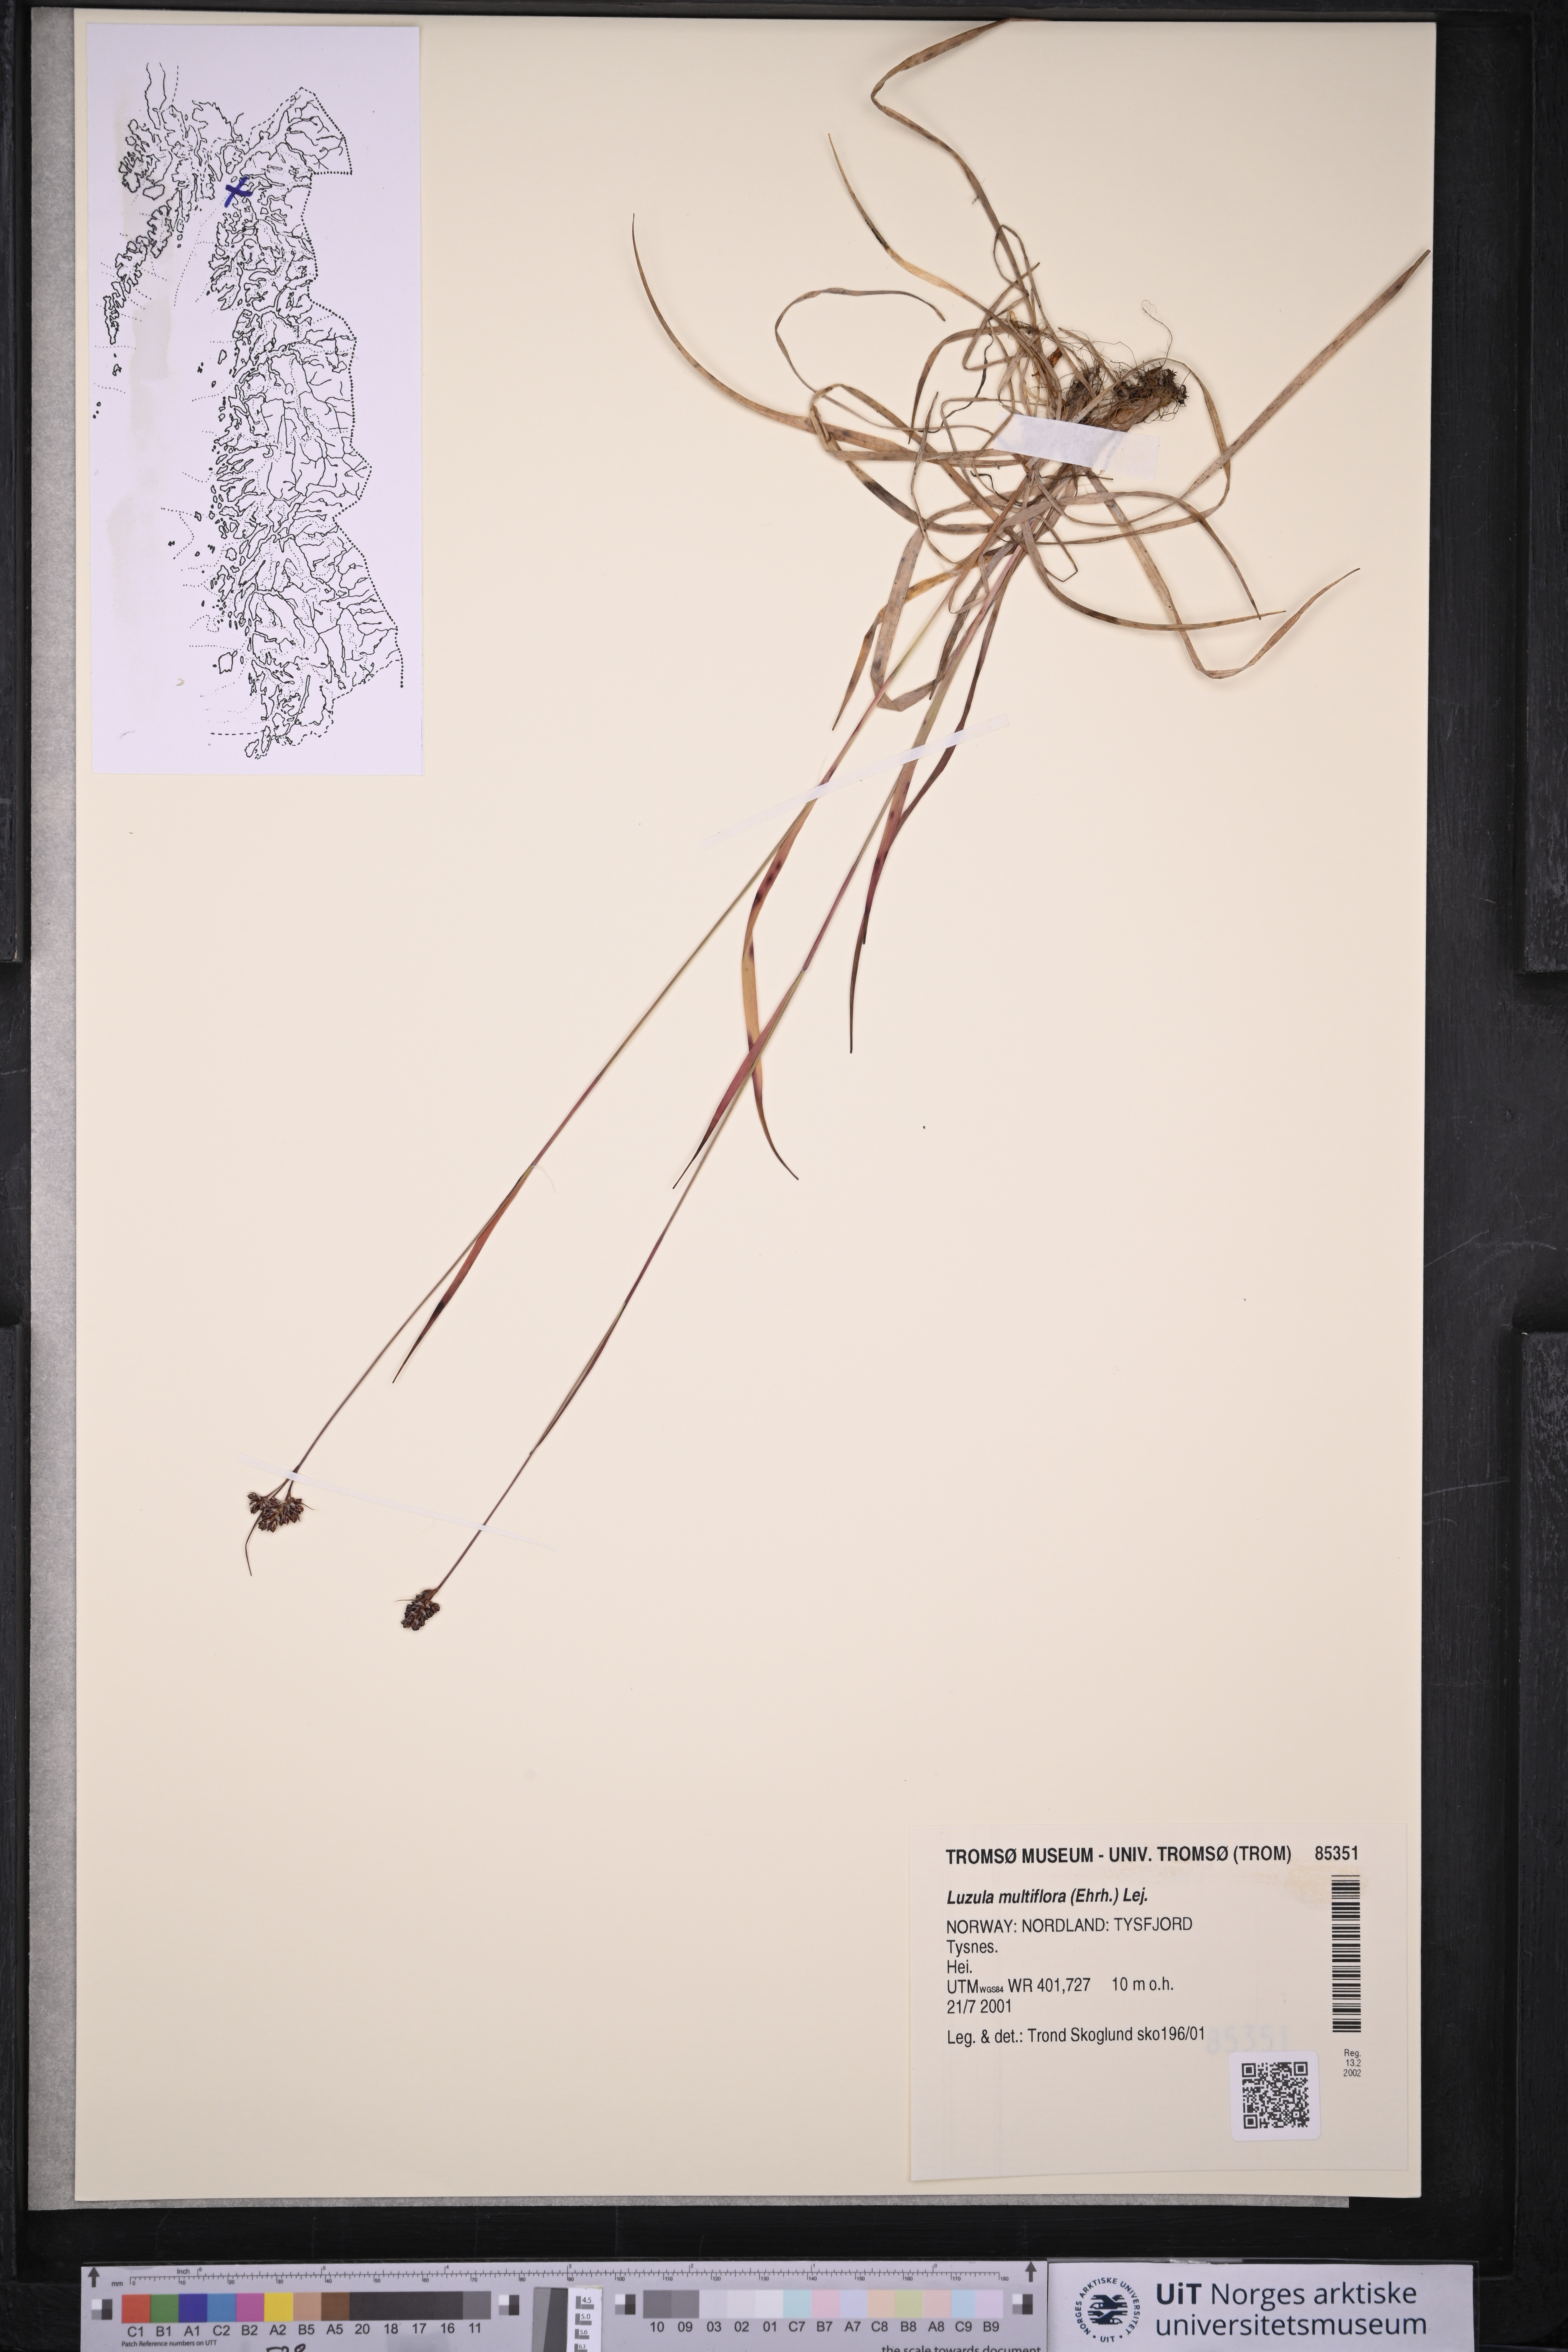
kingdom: Plantae
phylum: Tracheophyta
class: Liliopsida
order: Poales
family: Juncaceae
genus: Luzula
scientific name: Luzula multiflora
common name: Heath wood-rush
